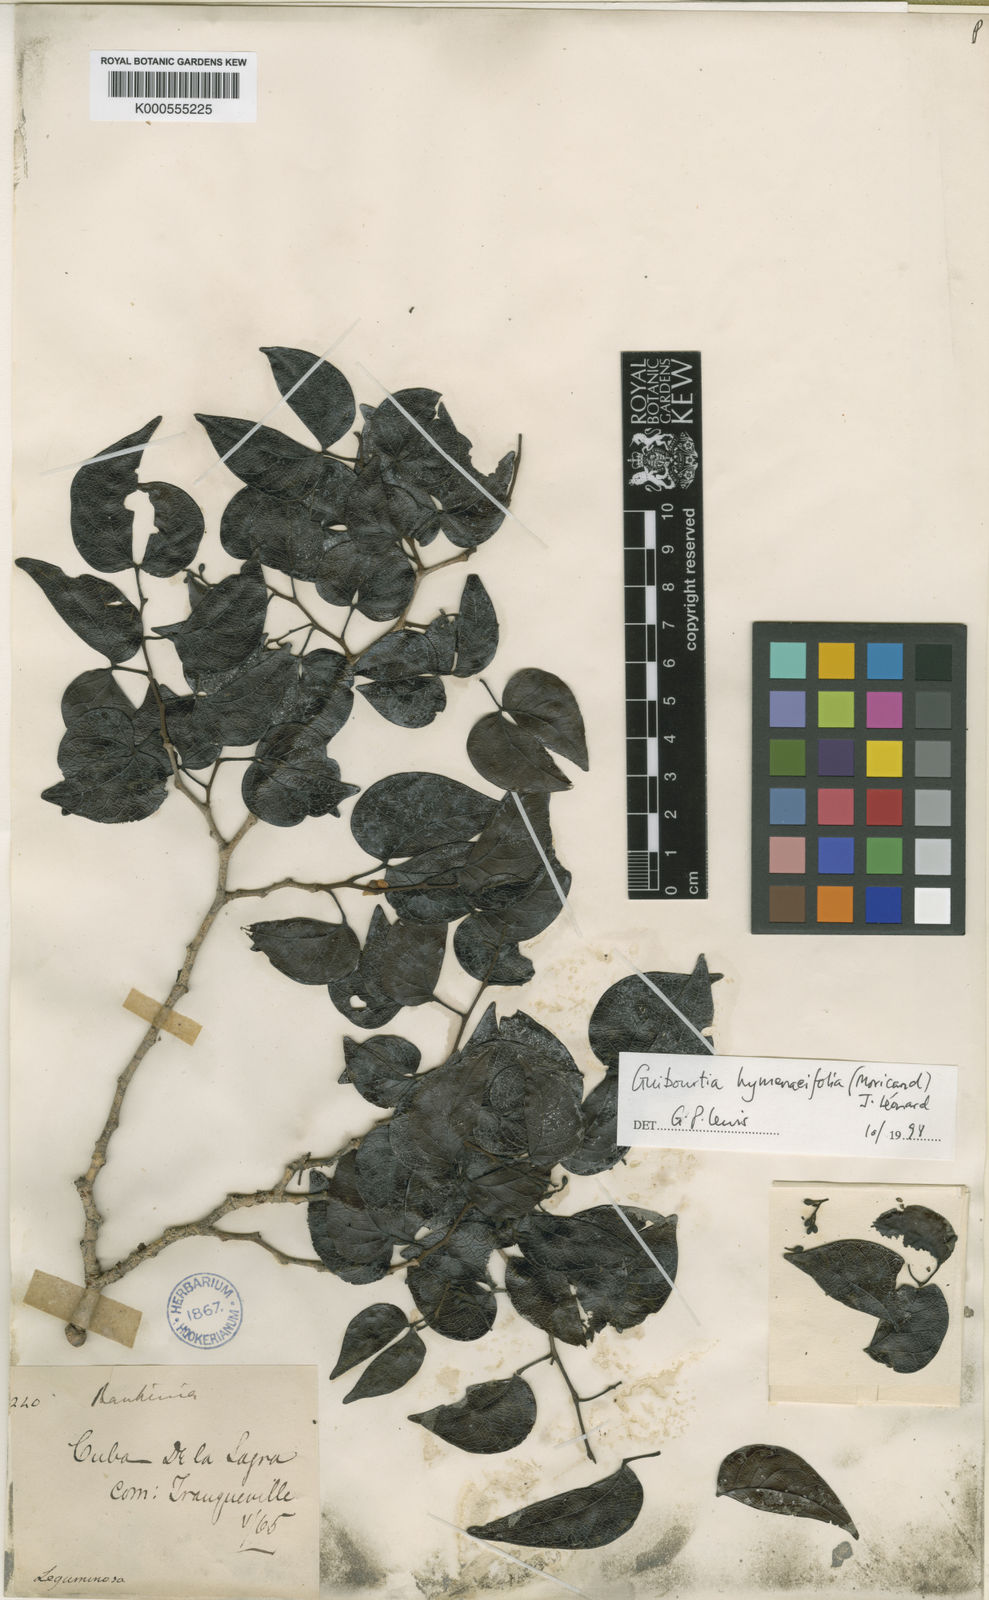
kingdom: Plantae
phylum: Tracheophyta
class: Magnoliopsida
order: Fabales
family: Fabaceae
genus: Guibourtia
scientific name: Guibourtia hymenaeifolia
